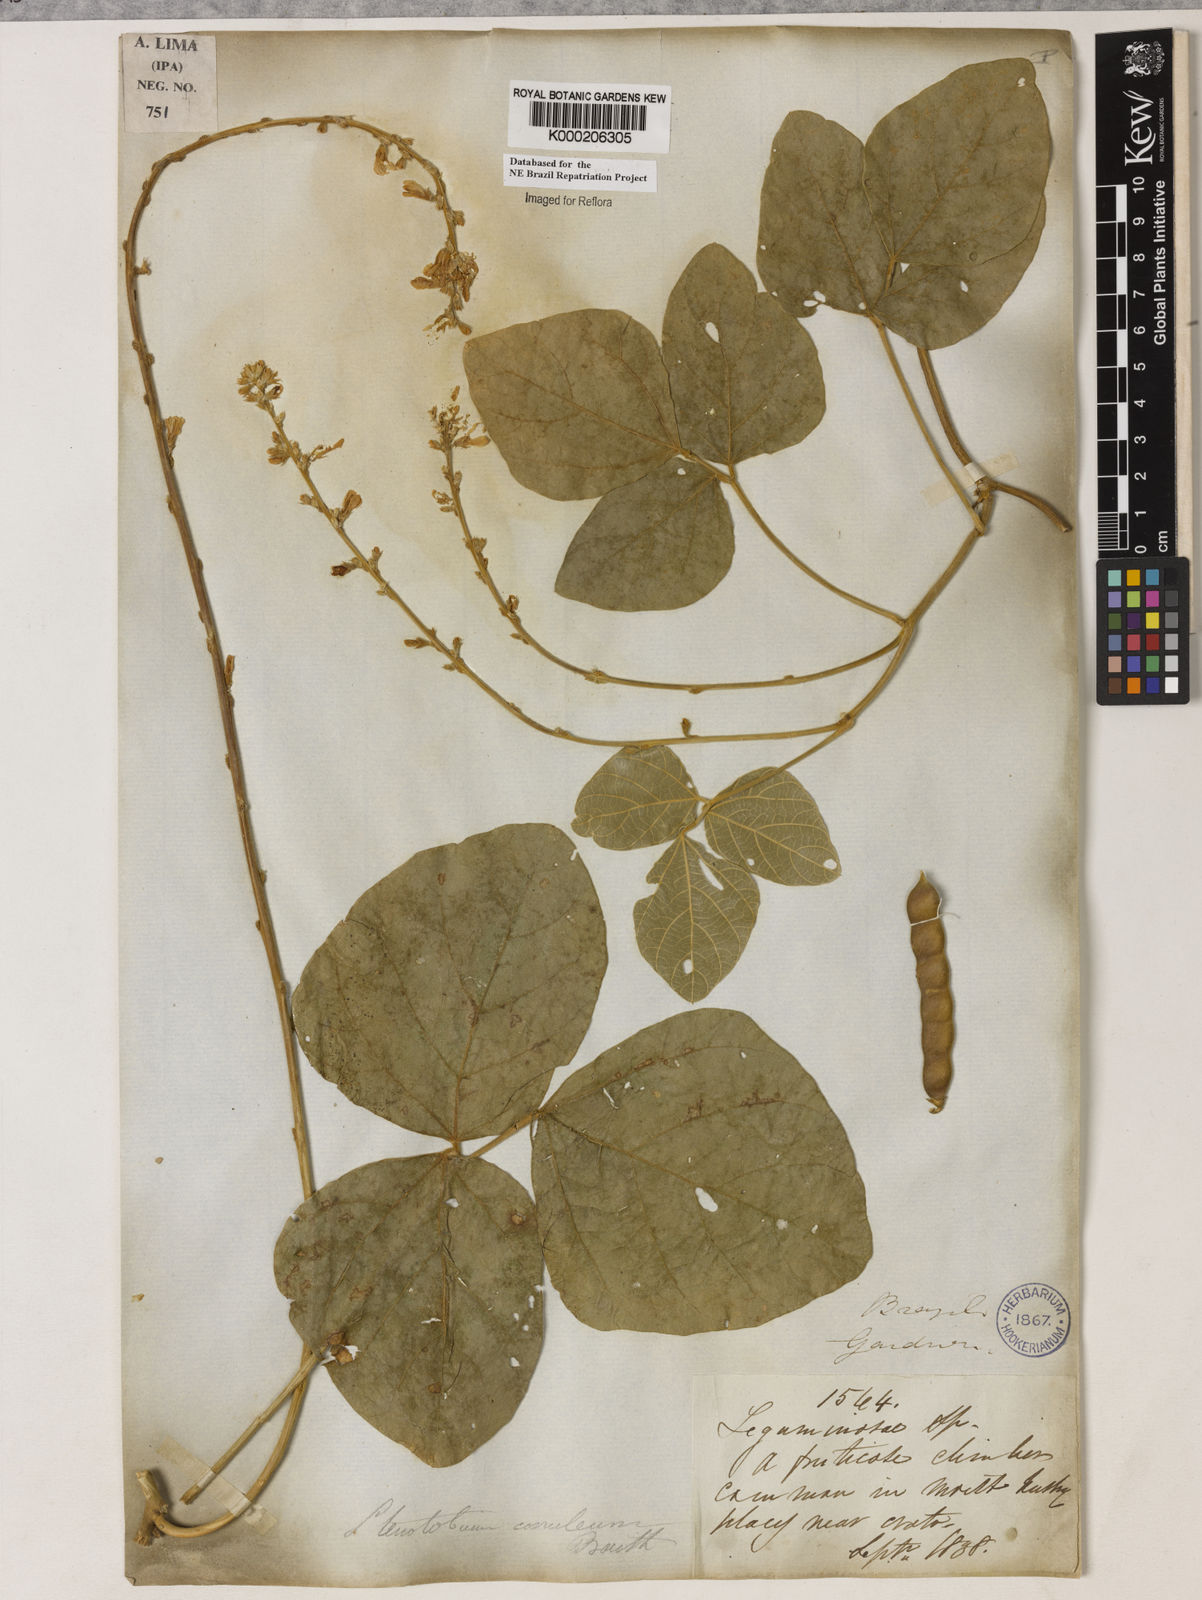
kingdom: Plantae
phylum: Tracheophyta
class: Magnoliopsida
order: Fabales
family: Fabaceae
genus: Calopogonium
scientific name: Calopogonium
